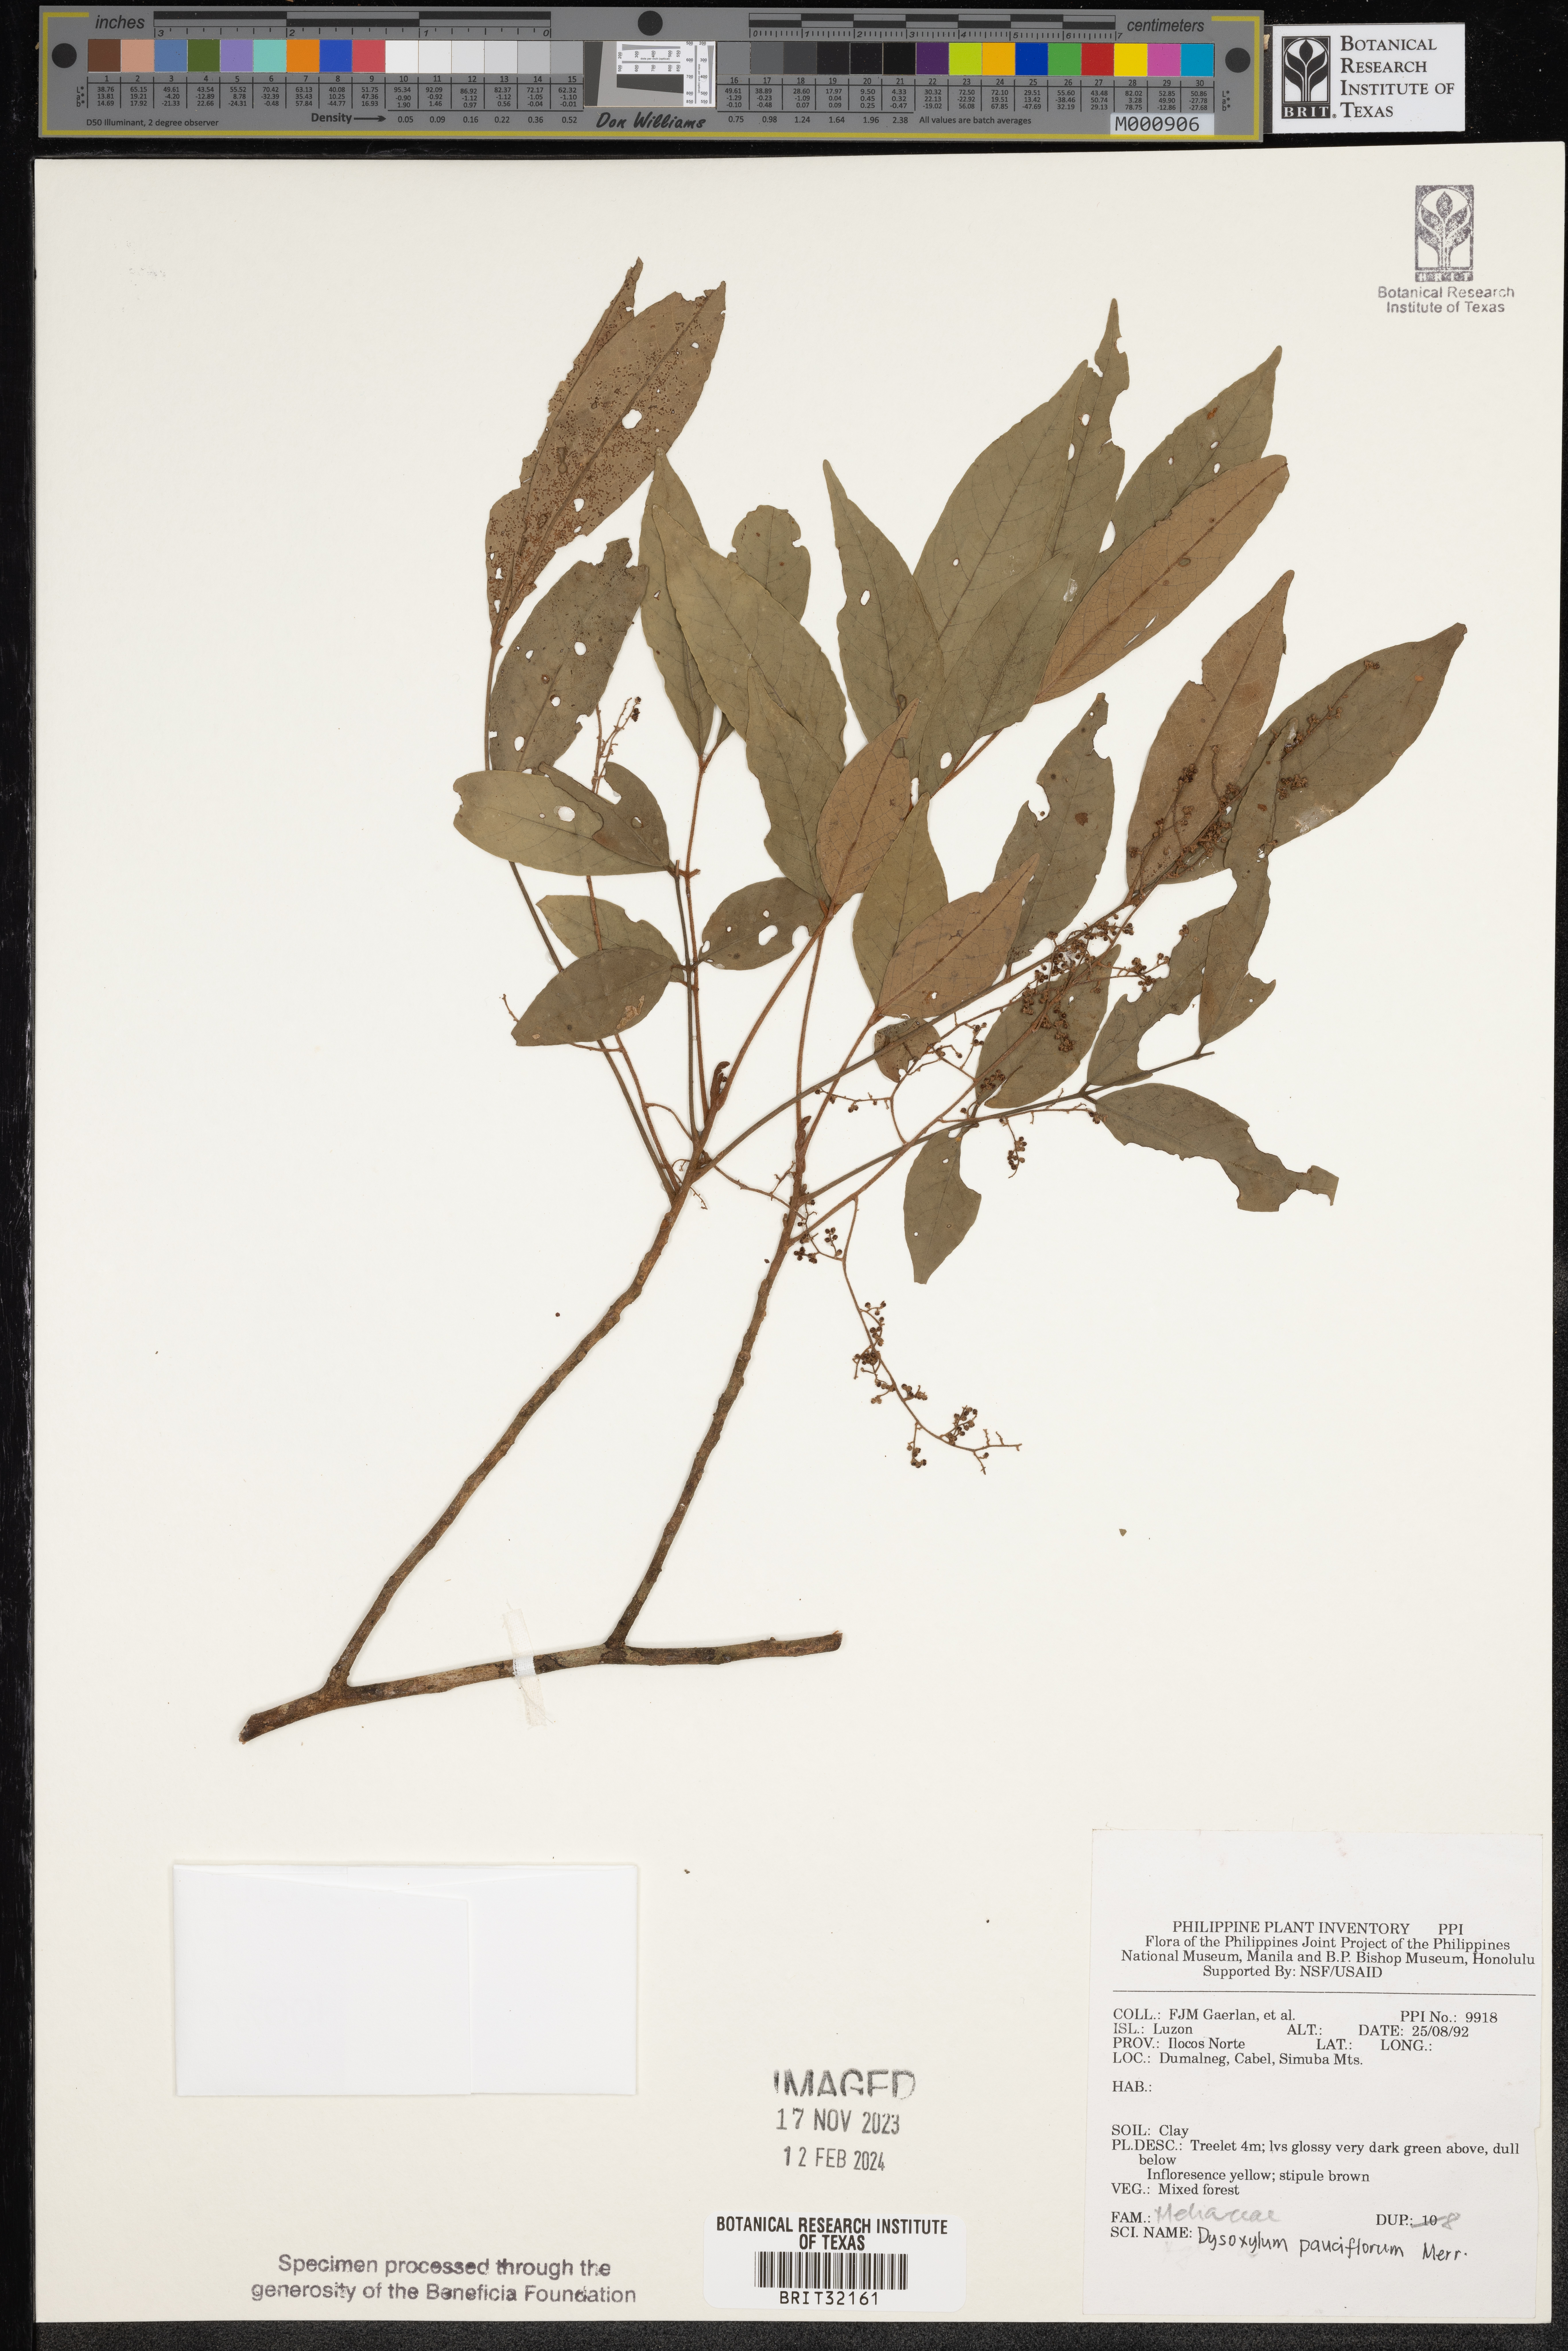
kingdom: Plantae
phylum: Tracheophyta
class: Magnoliopsida
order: Sapindales
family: Meliaceae
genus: Didymocheton
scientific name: Didymocheton pauciflorus
